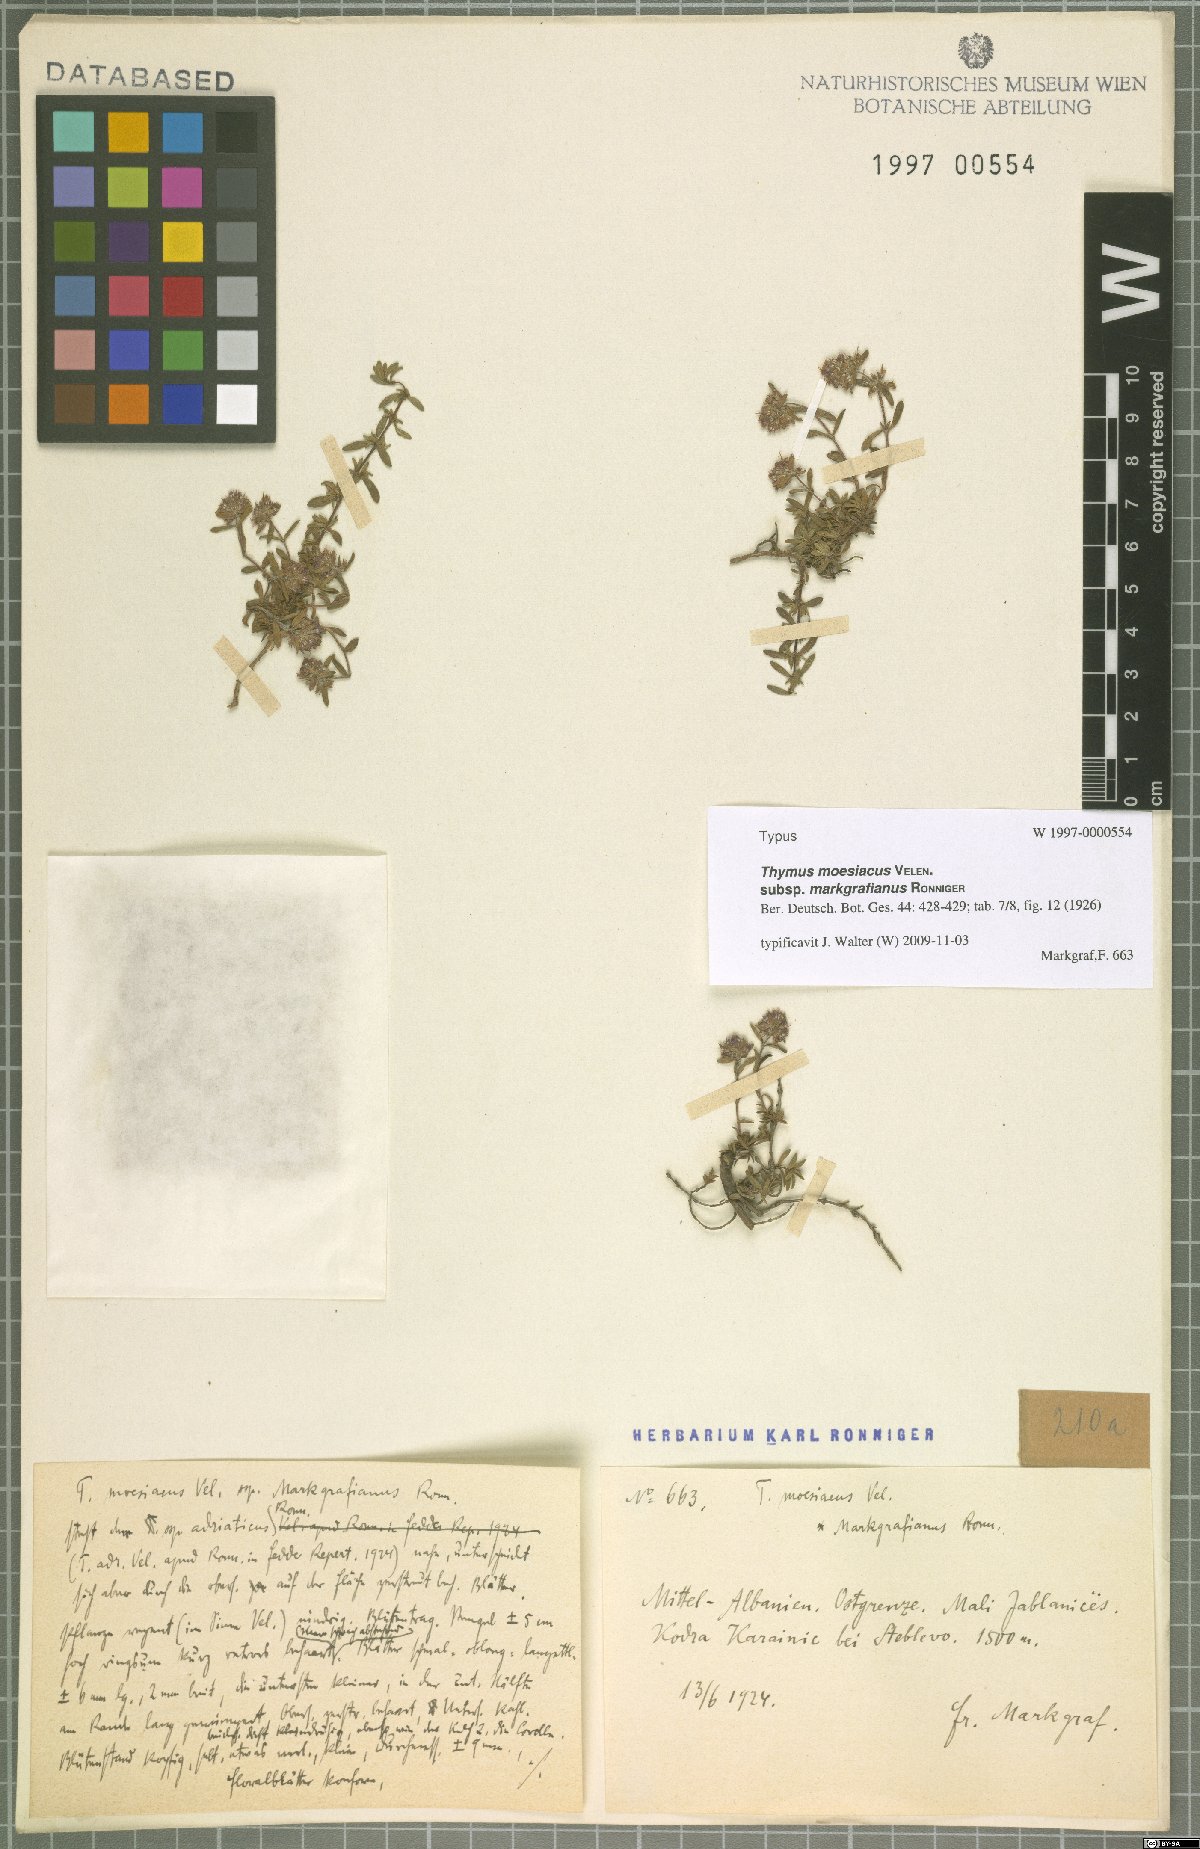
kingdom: Plantae
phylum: Tracheophyta
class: Magnoliopsida
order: Lamiales
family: Lamiaceae
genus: Thymus
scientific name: Thymus longicaulis
